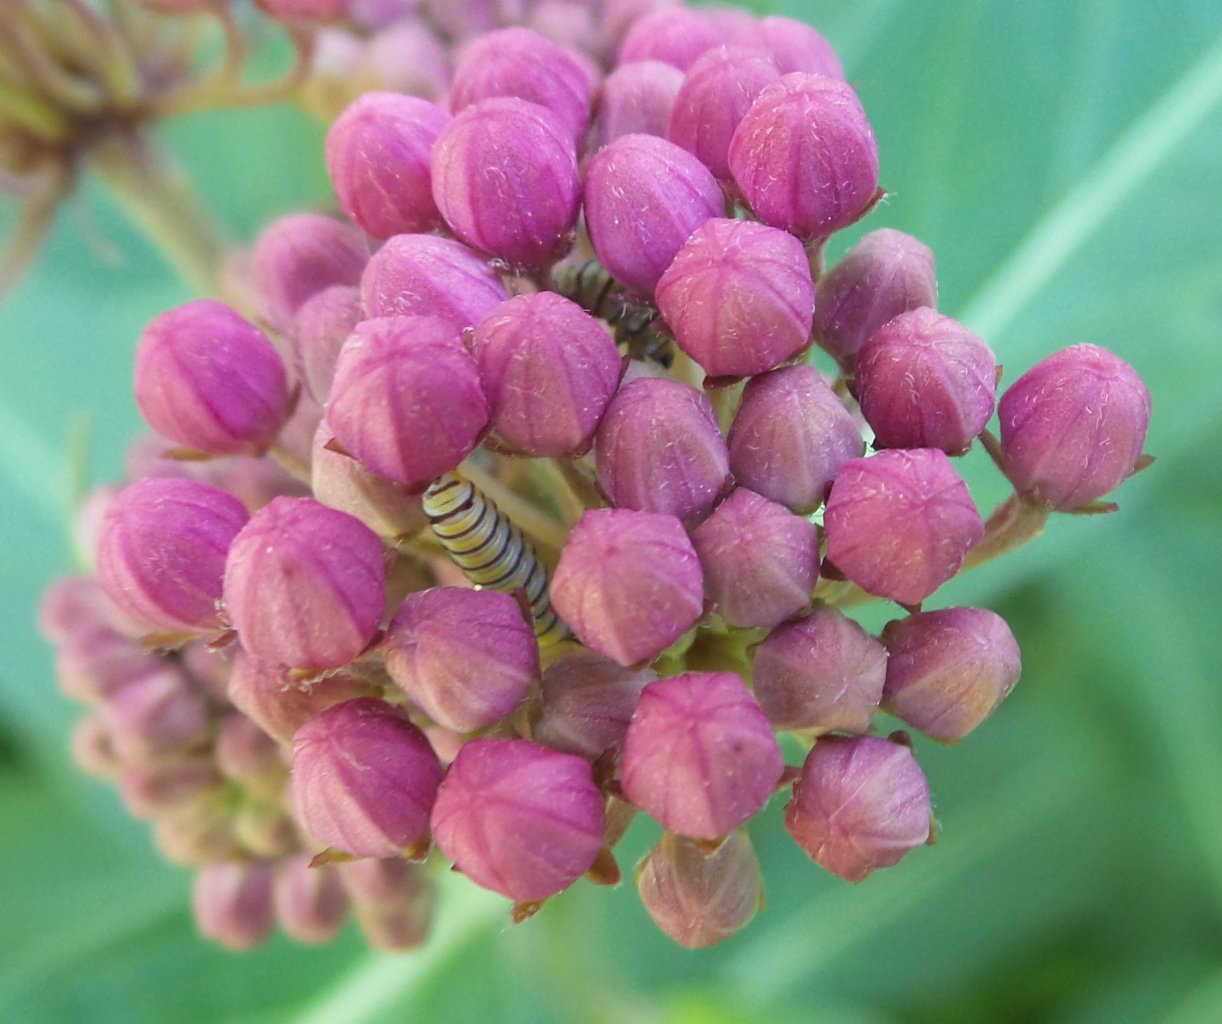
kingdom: Animalia
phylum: Arthropoda
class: Insecta
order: Lepidoptera
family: Nymphalidae
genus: Danaus
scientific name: Danaus plexippus
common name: Monarch
